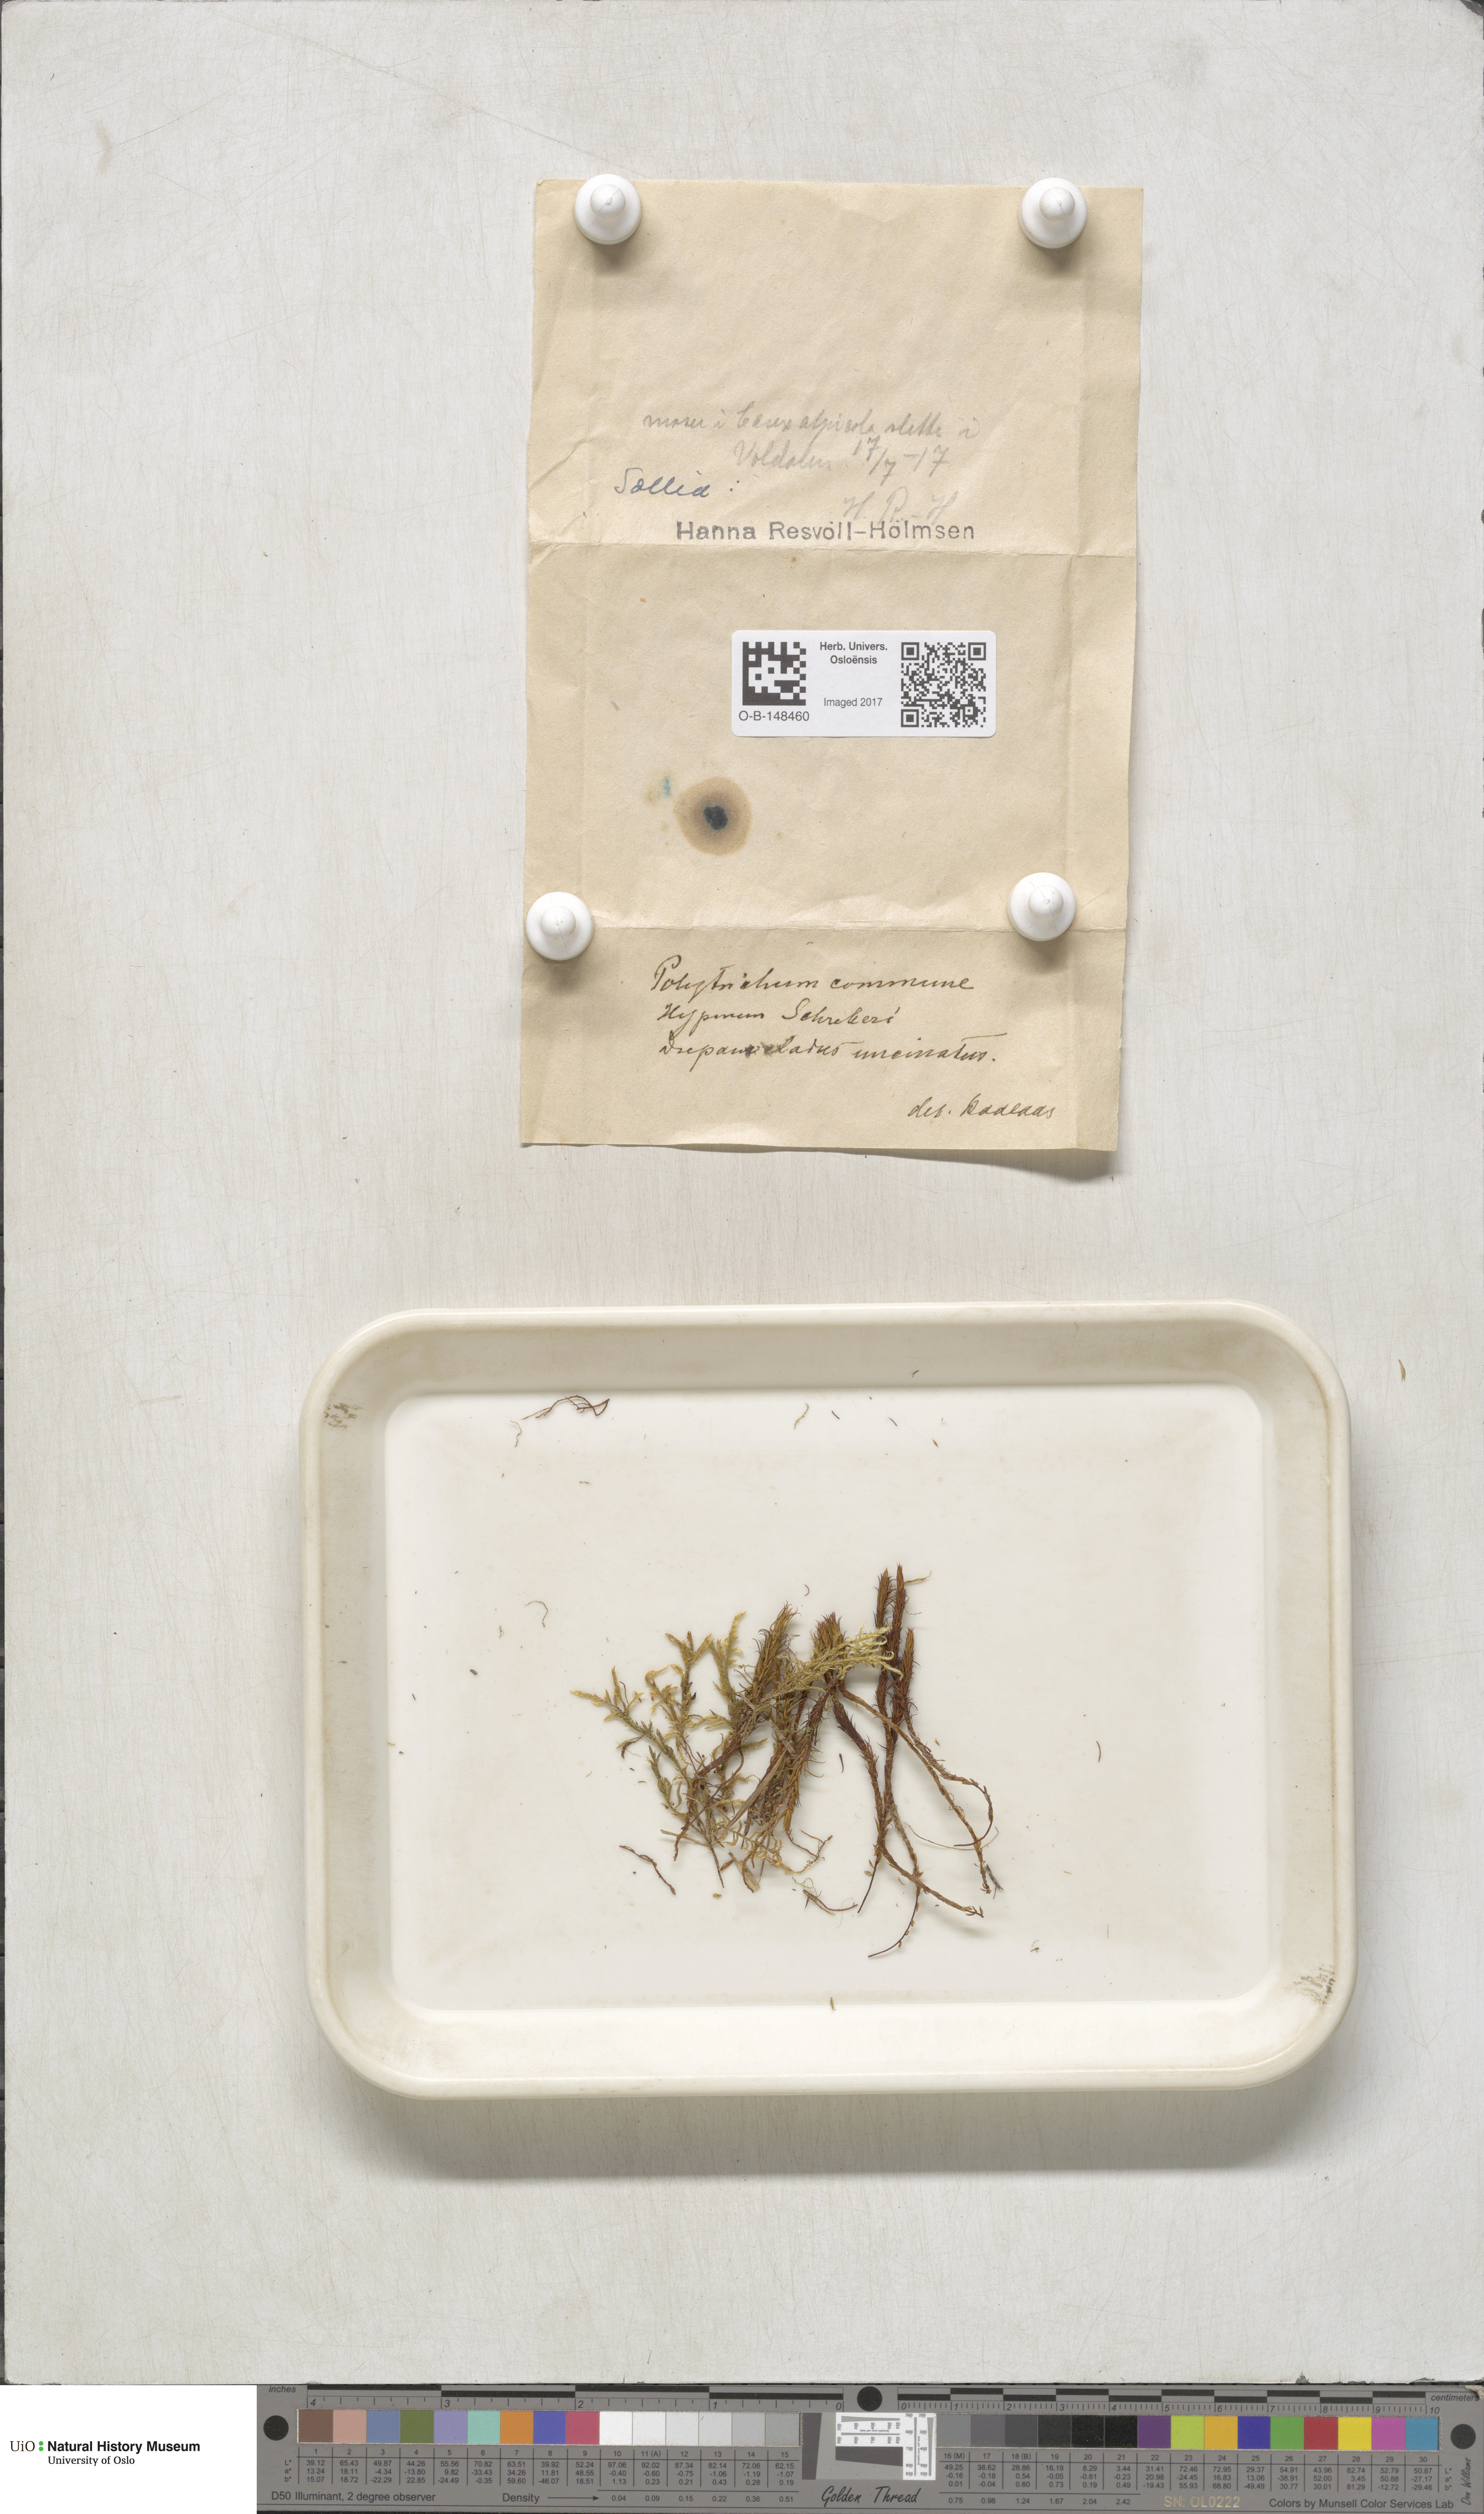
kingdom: Plantae
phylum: Bryophyta
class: Polytrichopsida
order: Polytrichales
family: Polytrichaceae
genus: Polytrichum
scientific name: Polytrichum commune
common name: Common haircap
